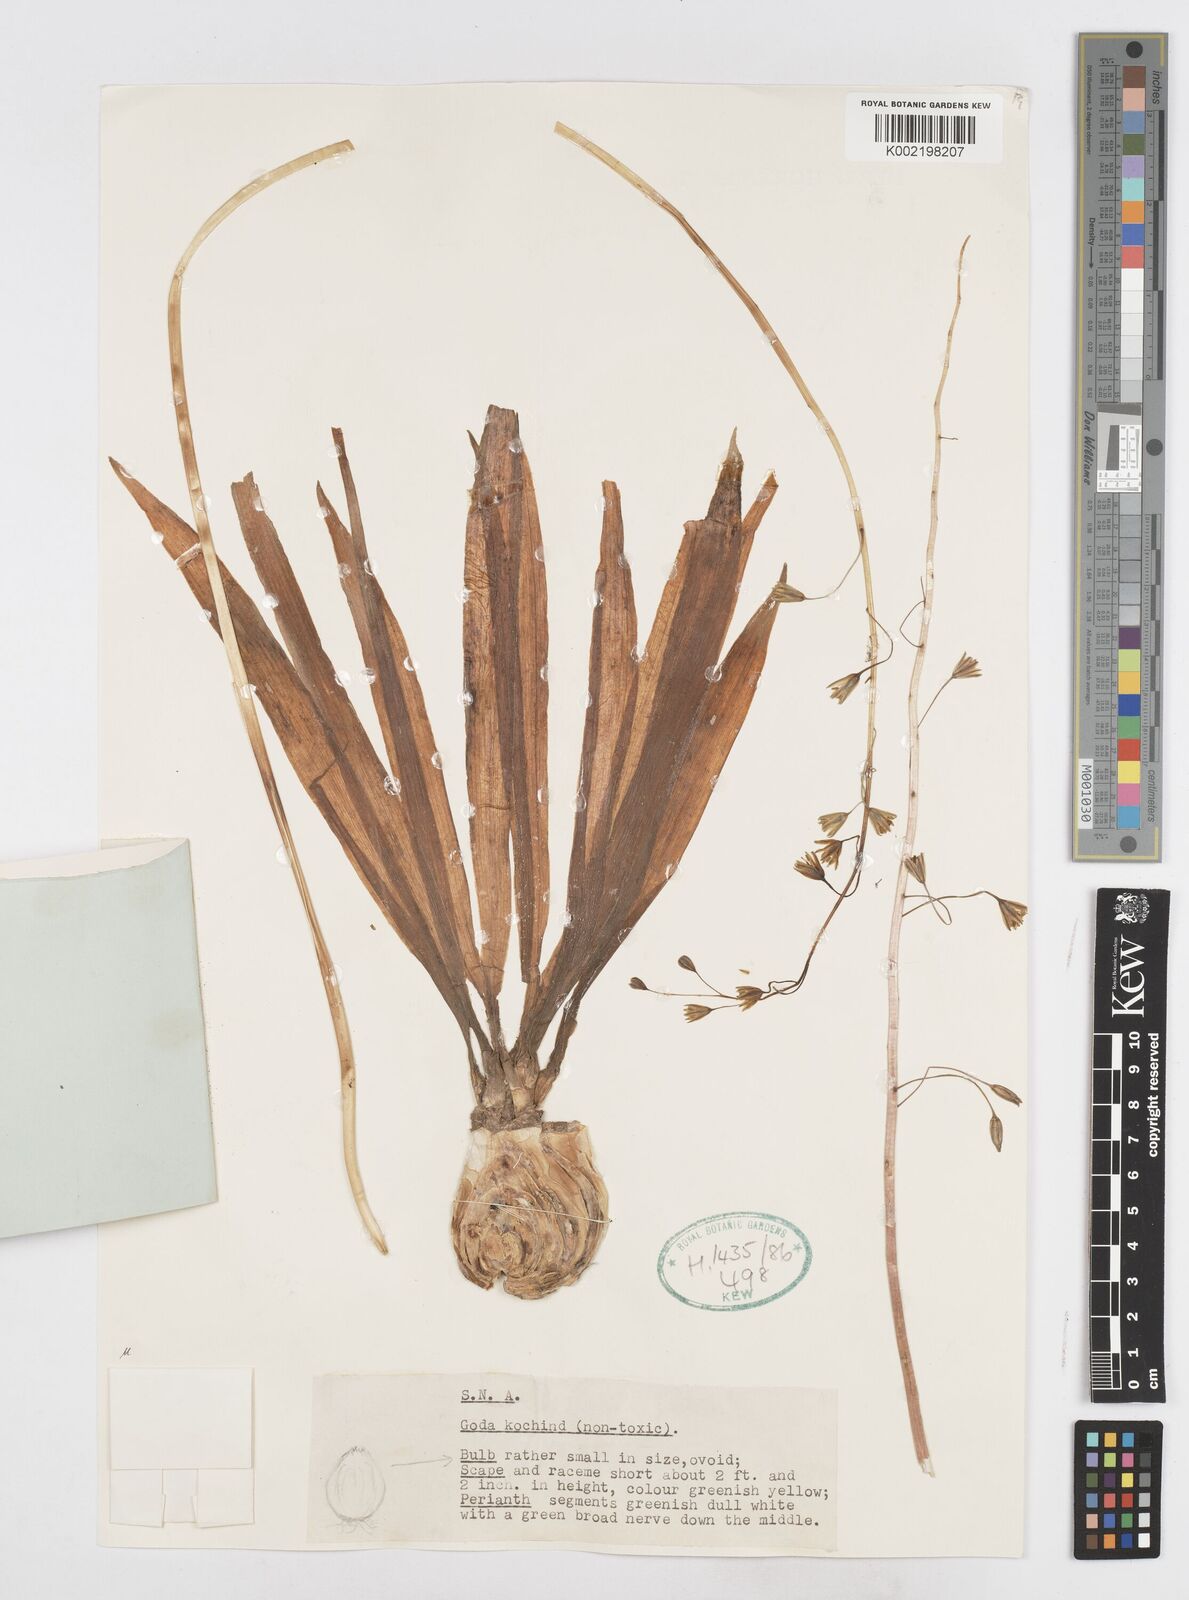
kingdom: Plantae
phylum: Tracheophyta
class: Liliopsida
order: Asparagales
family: Asparagaceae
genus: Drimia
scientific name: Drimia indica
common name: Indian-squill
